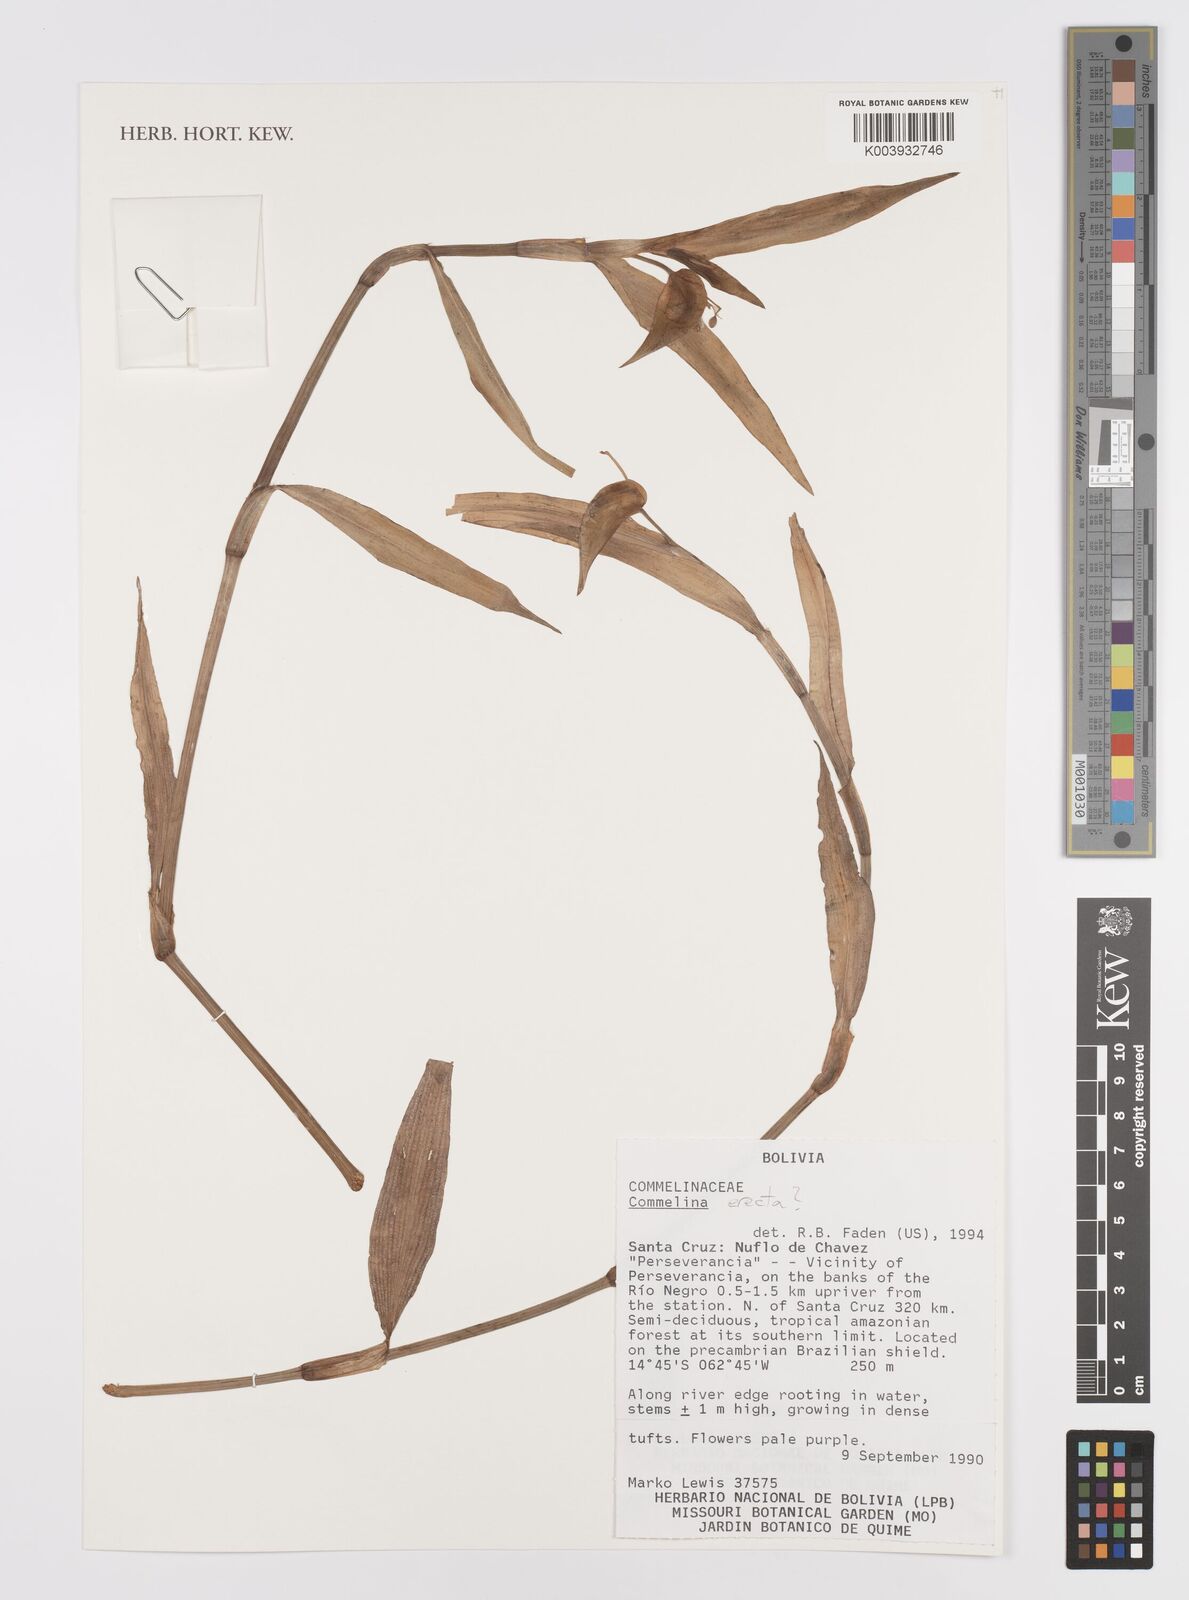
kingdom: Plantae
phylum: Tracheophyta
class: Liliopsida
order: Commelinales
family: Commelinaceae
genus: Commelina
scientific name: Commelina erecta
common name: Blousel blommetjie
